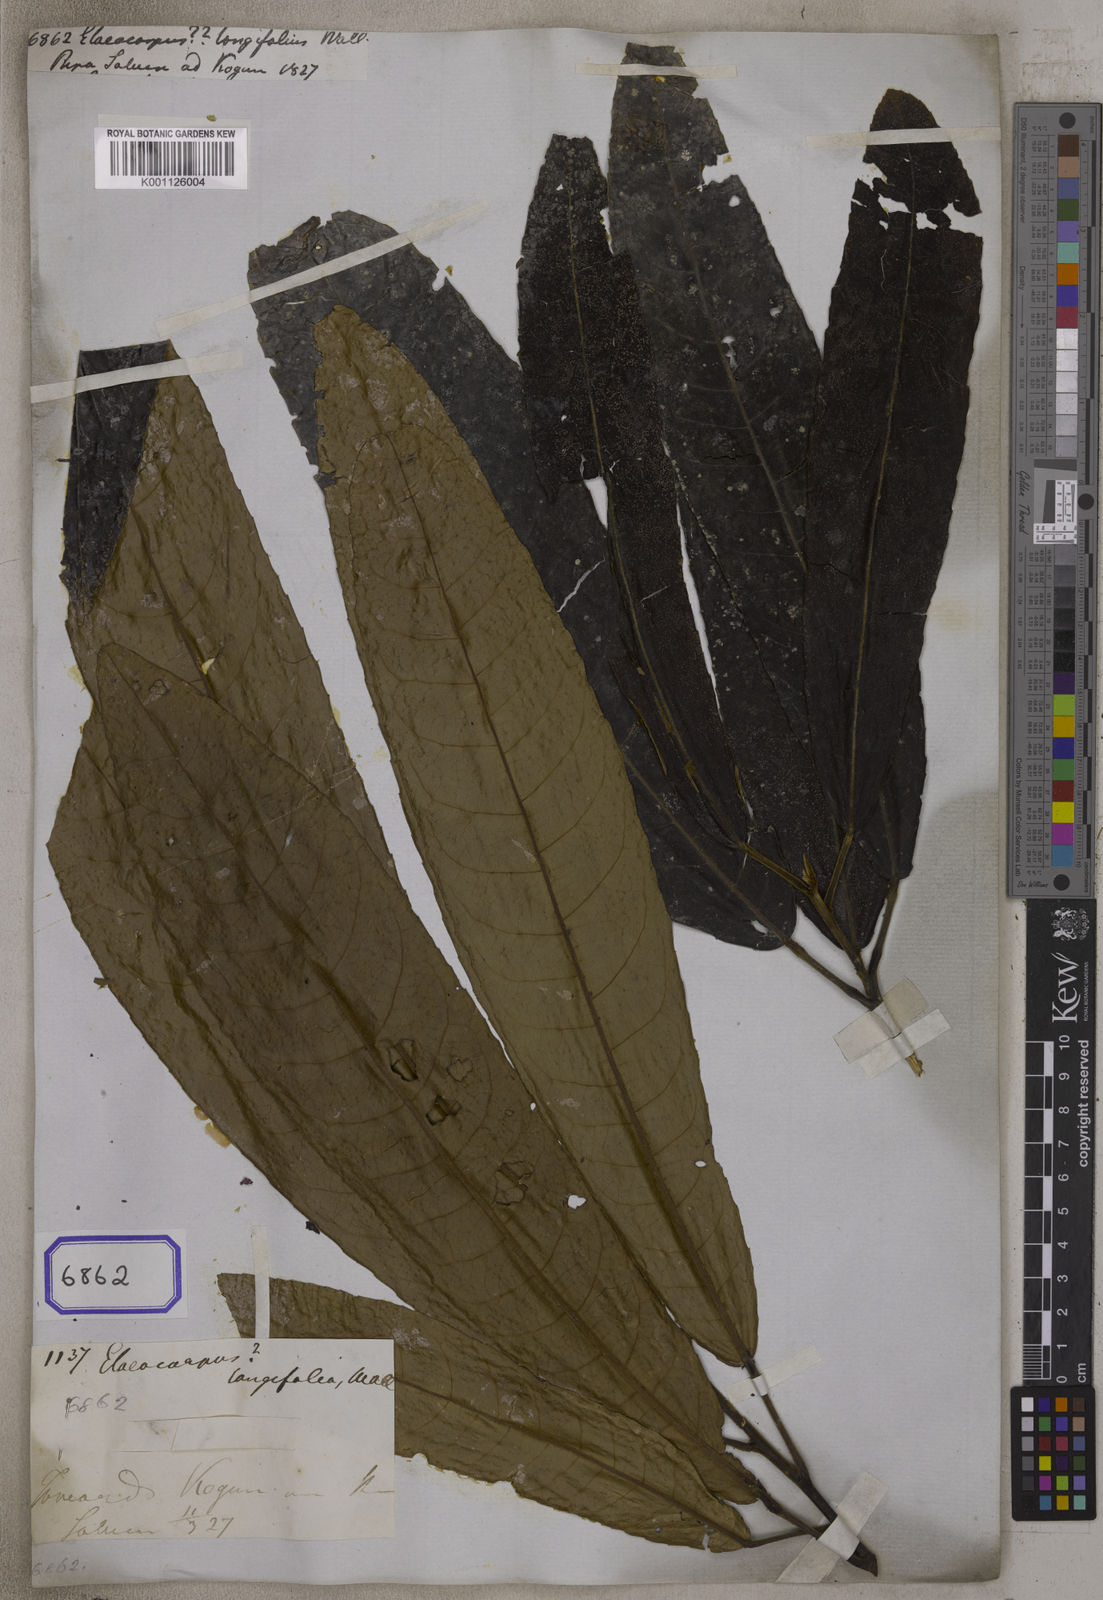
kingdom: Plantae
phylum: Tracheophyta
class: Magnoliopsida
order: Oxalidales
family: Elaeocarpaceae
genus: Elaeocarpus
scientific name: Elaeocarpus
